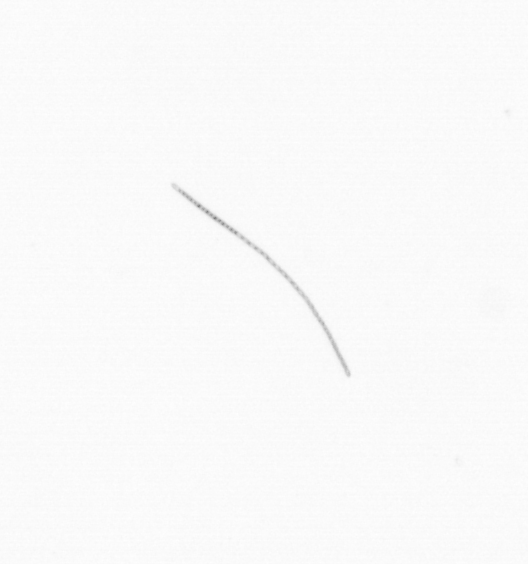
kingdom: Chromista
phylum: Ochrophyta
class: Bacillariophyceae
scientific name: Bacillariophyceae
